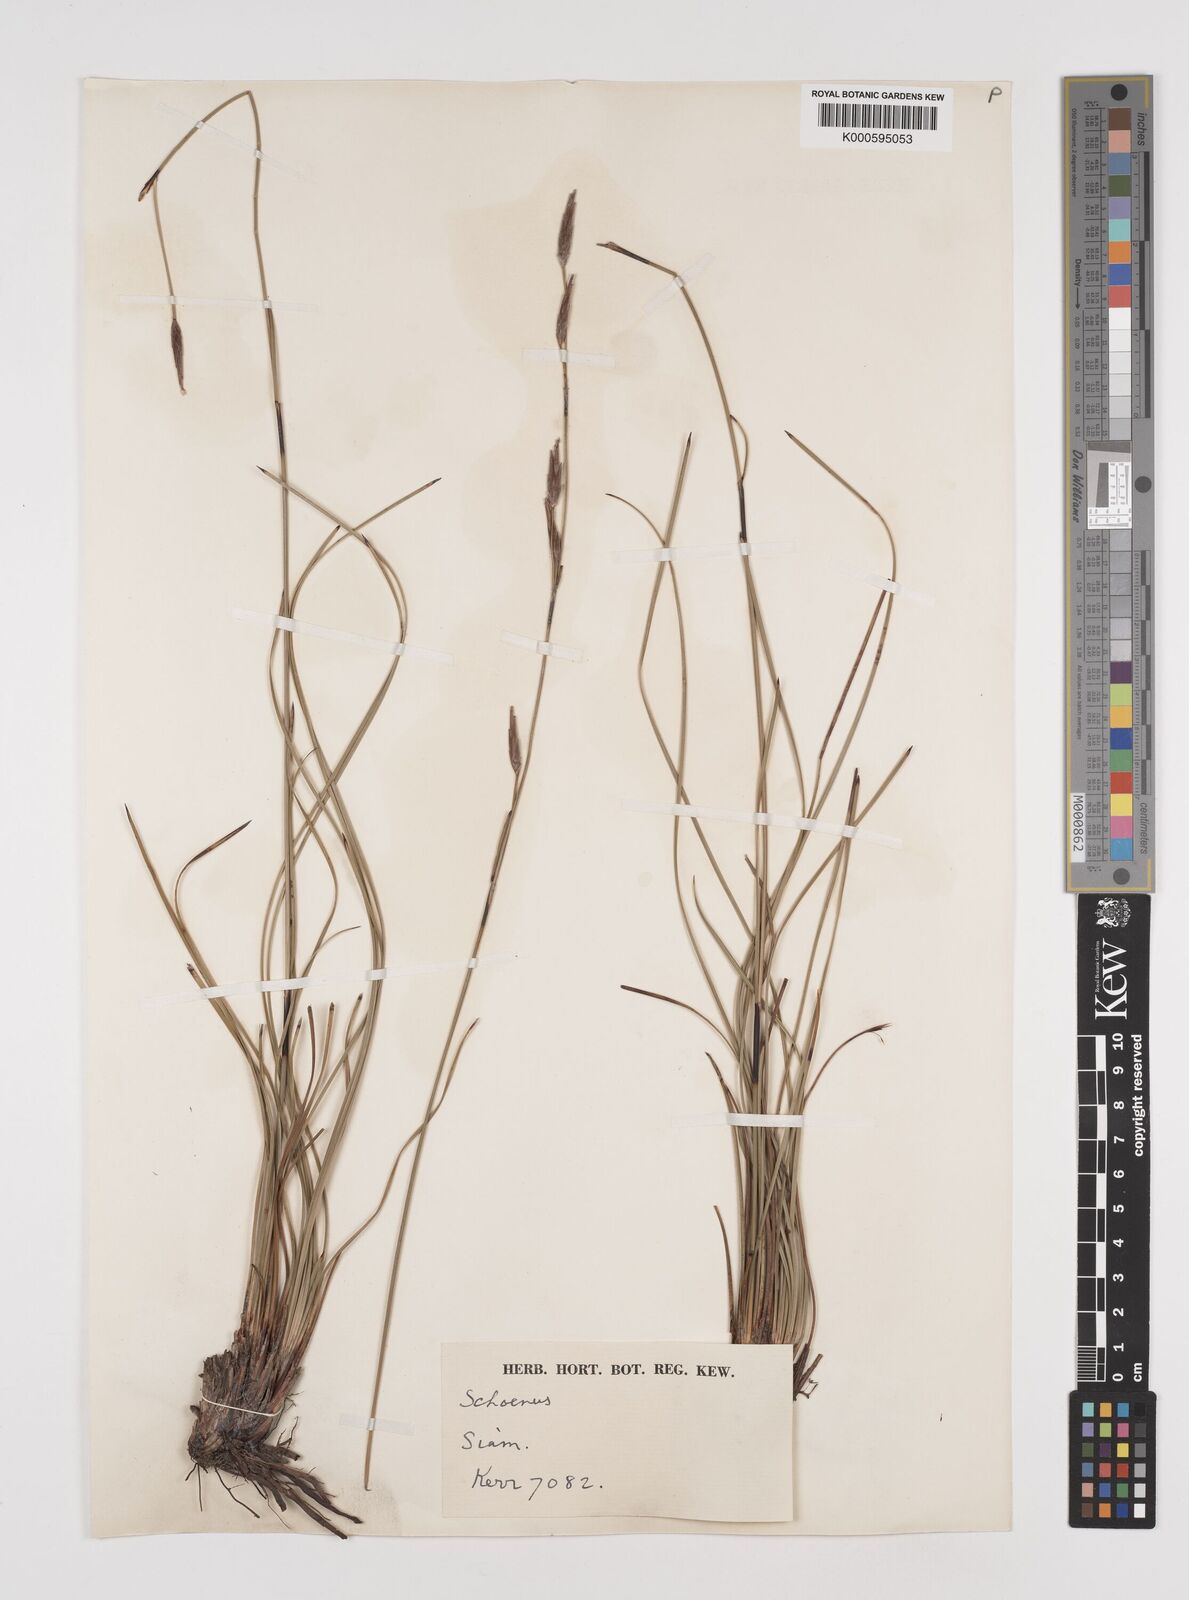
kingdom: Plantae
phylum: Tracheophyta
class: Liliopsida
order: Poales
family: Cyperaceae
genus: Schoenus
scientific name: Schoenus
